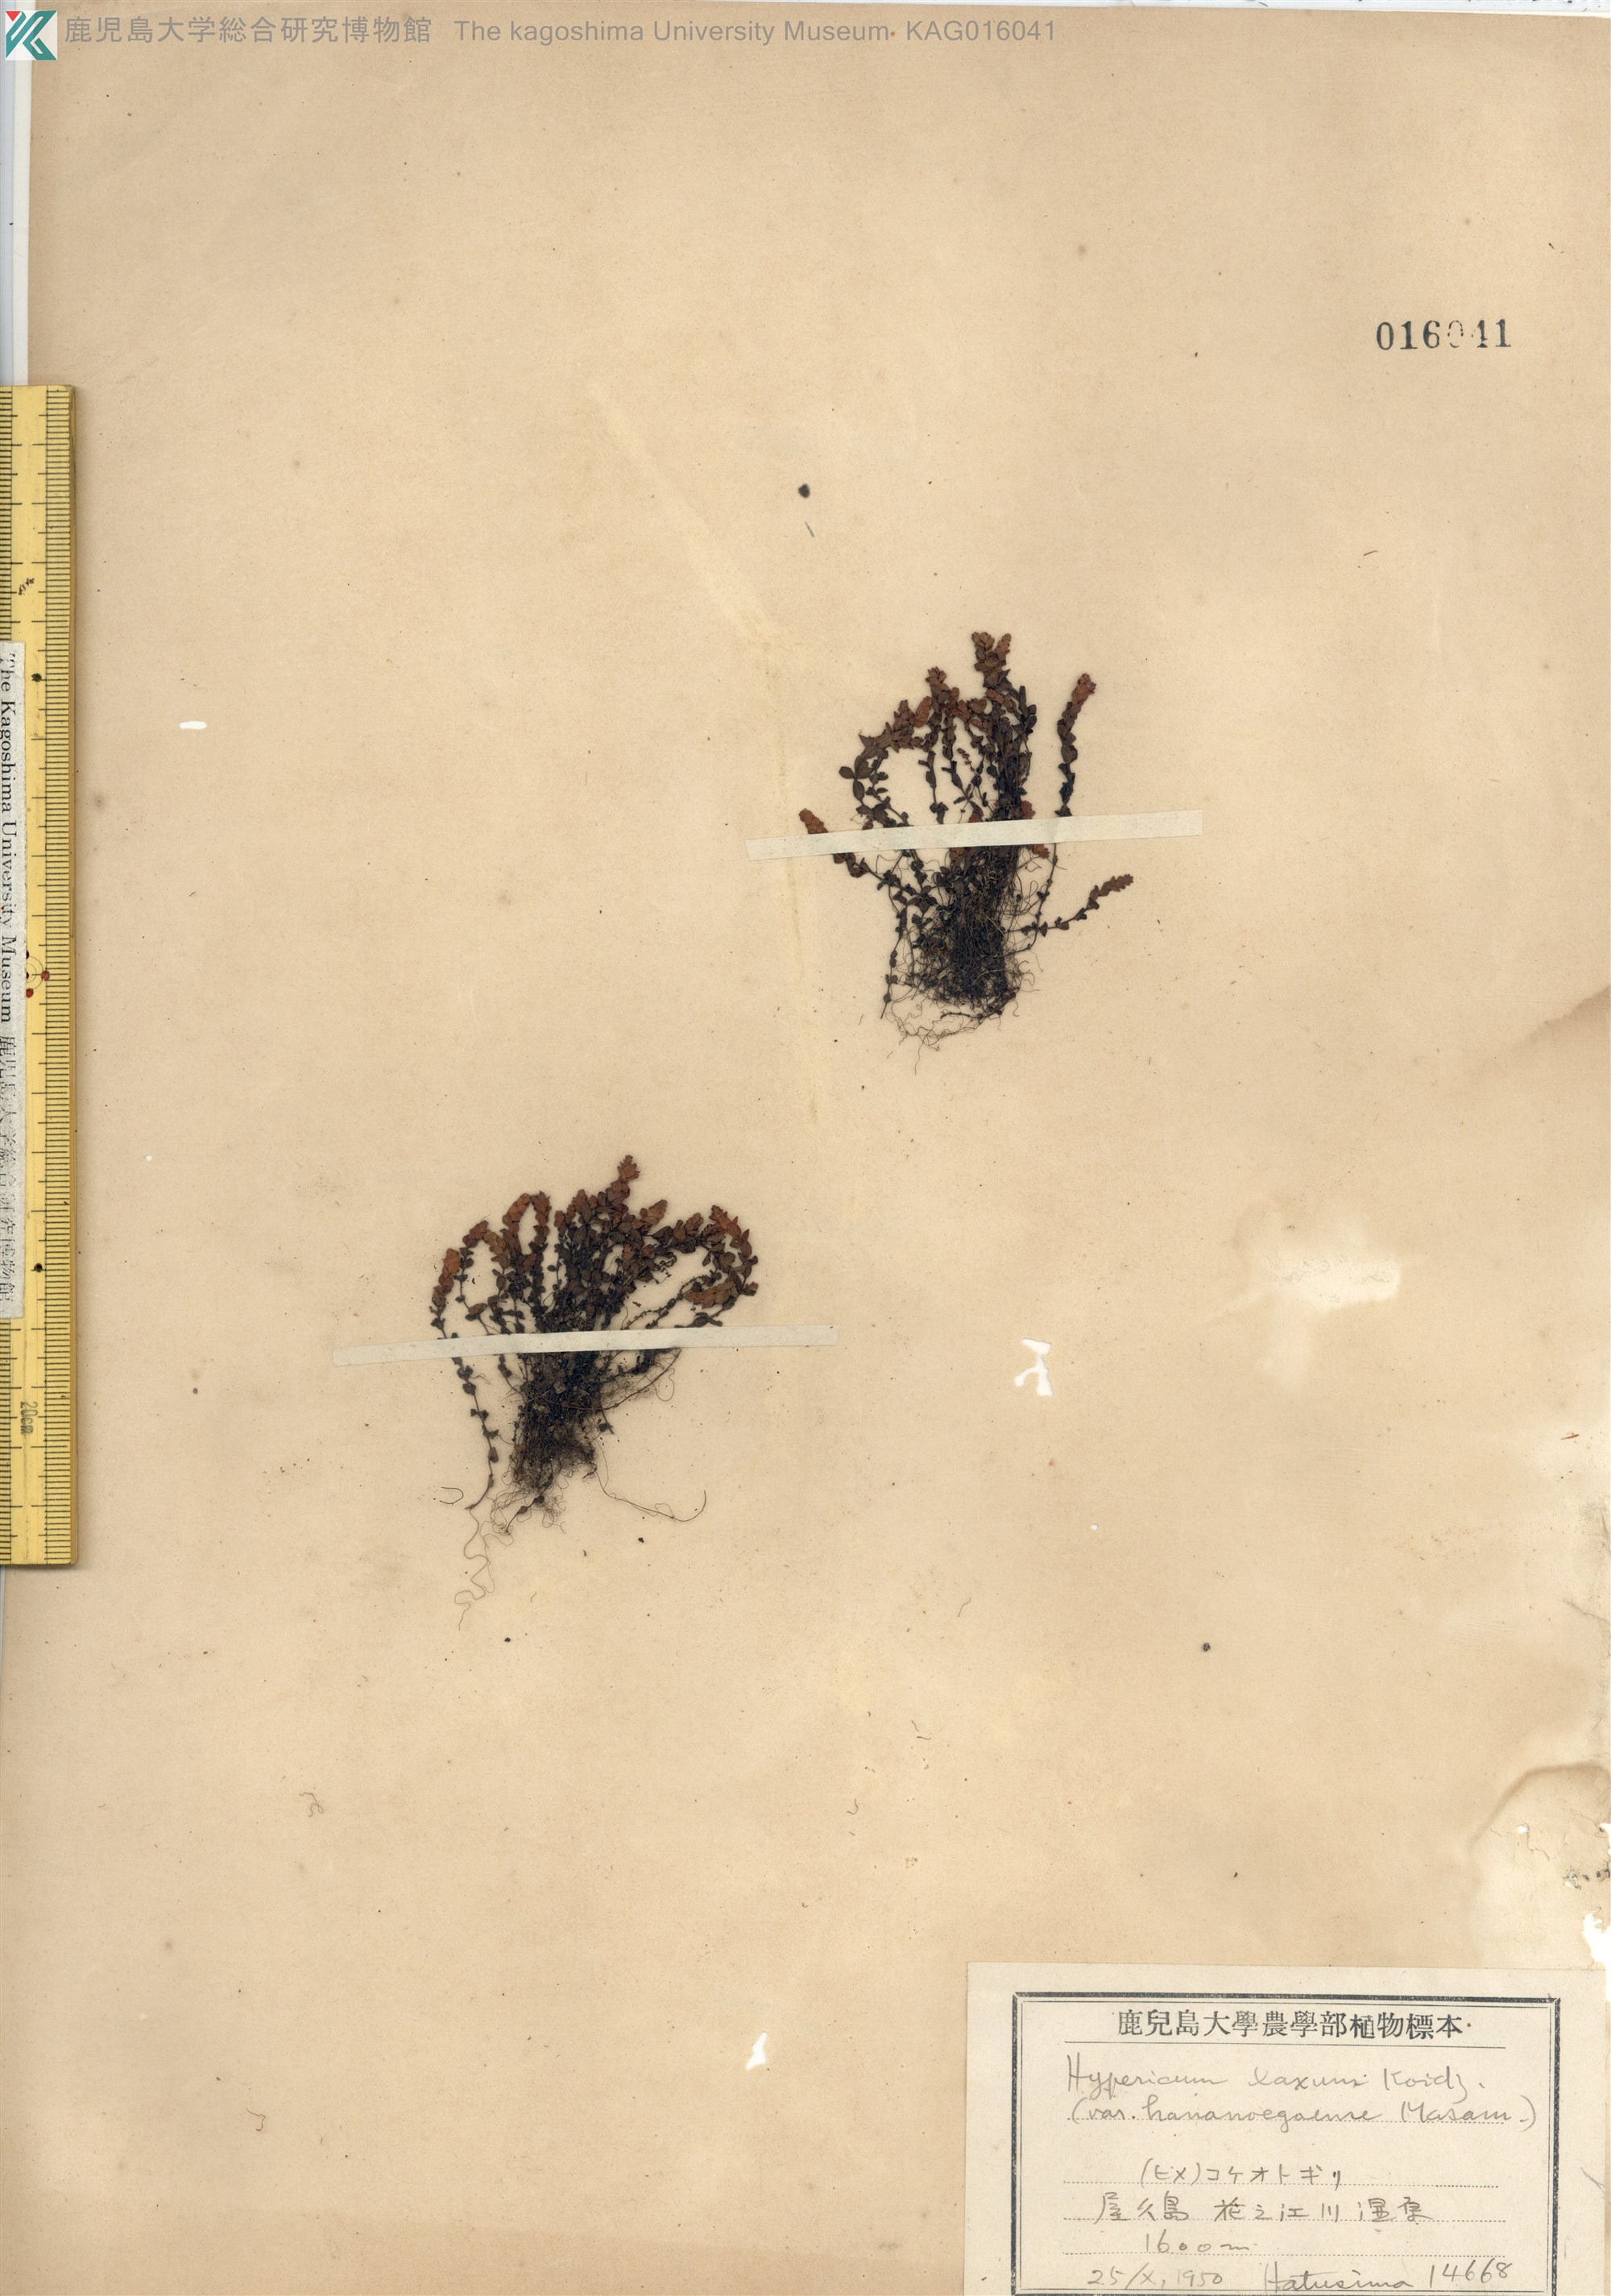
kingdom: Plantae
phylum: Tracheophyta
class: Magnoliopsida
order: Malpighiales
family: Hypericaceae
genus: Hypericum
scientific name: Hypericum japonicum
